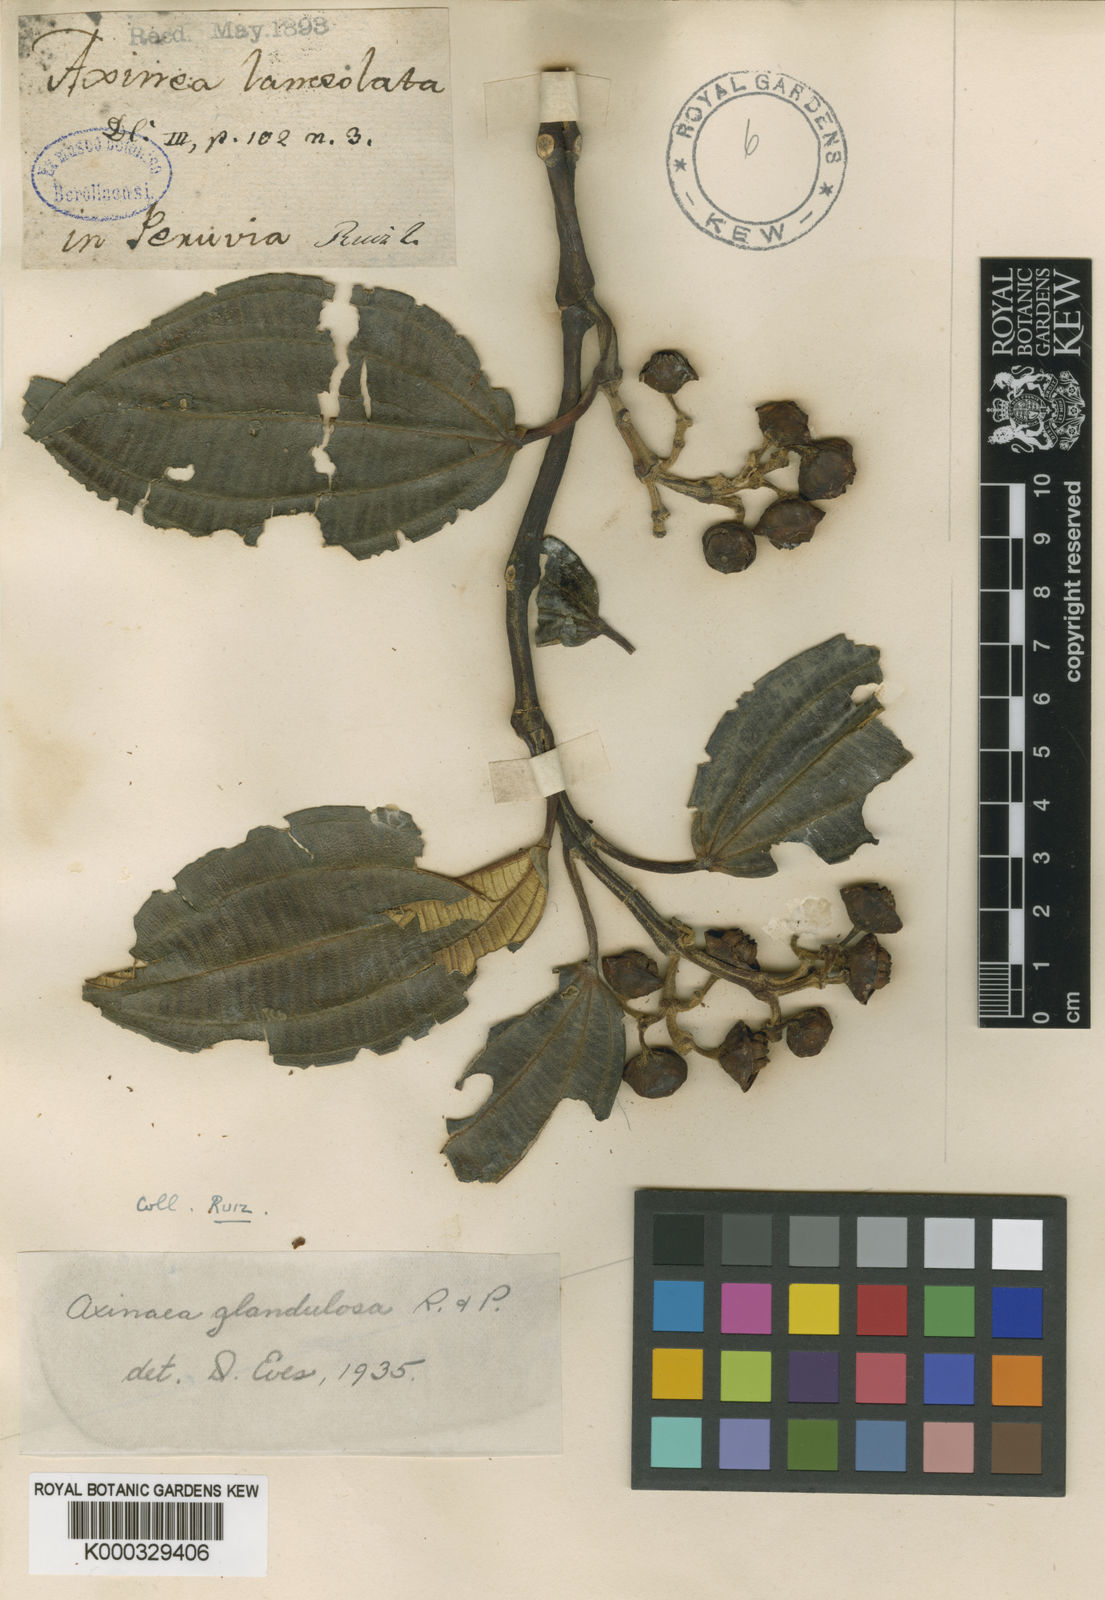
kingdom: Plantae
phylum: Tracheophyta
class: Magnoliopsida
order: Myrtales
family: Melastomataceae
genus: Axinaea
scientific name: Axinaea
